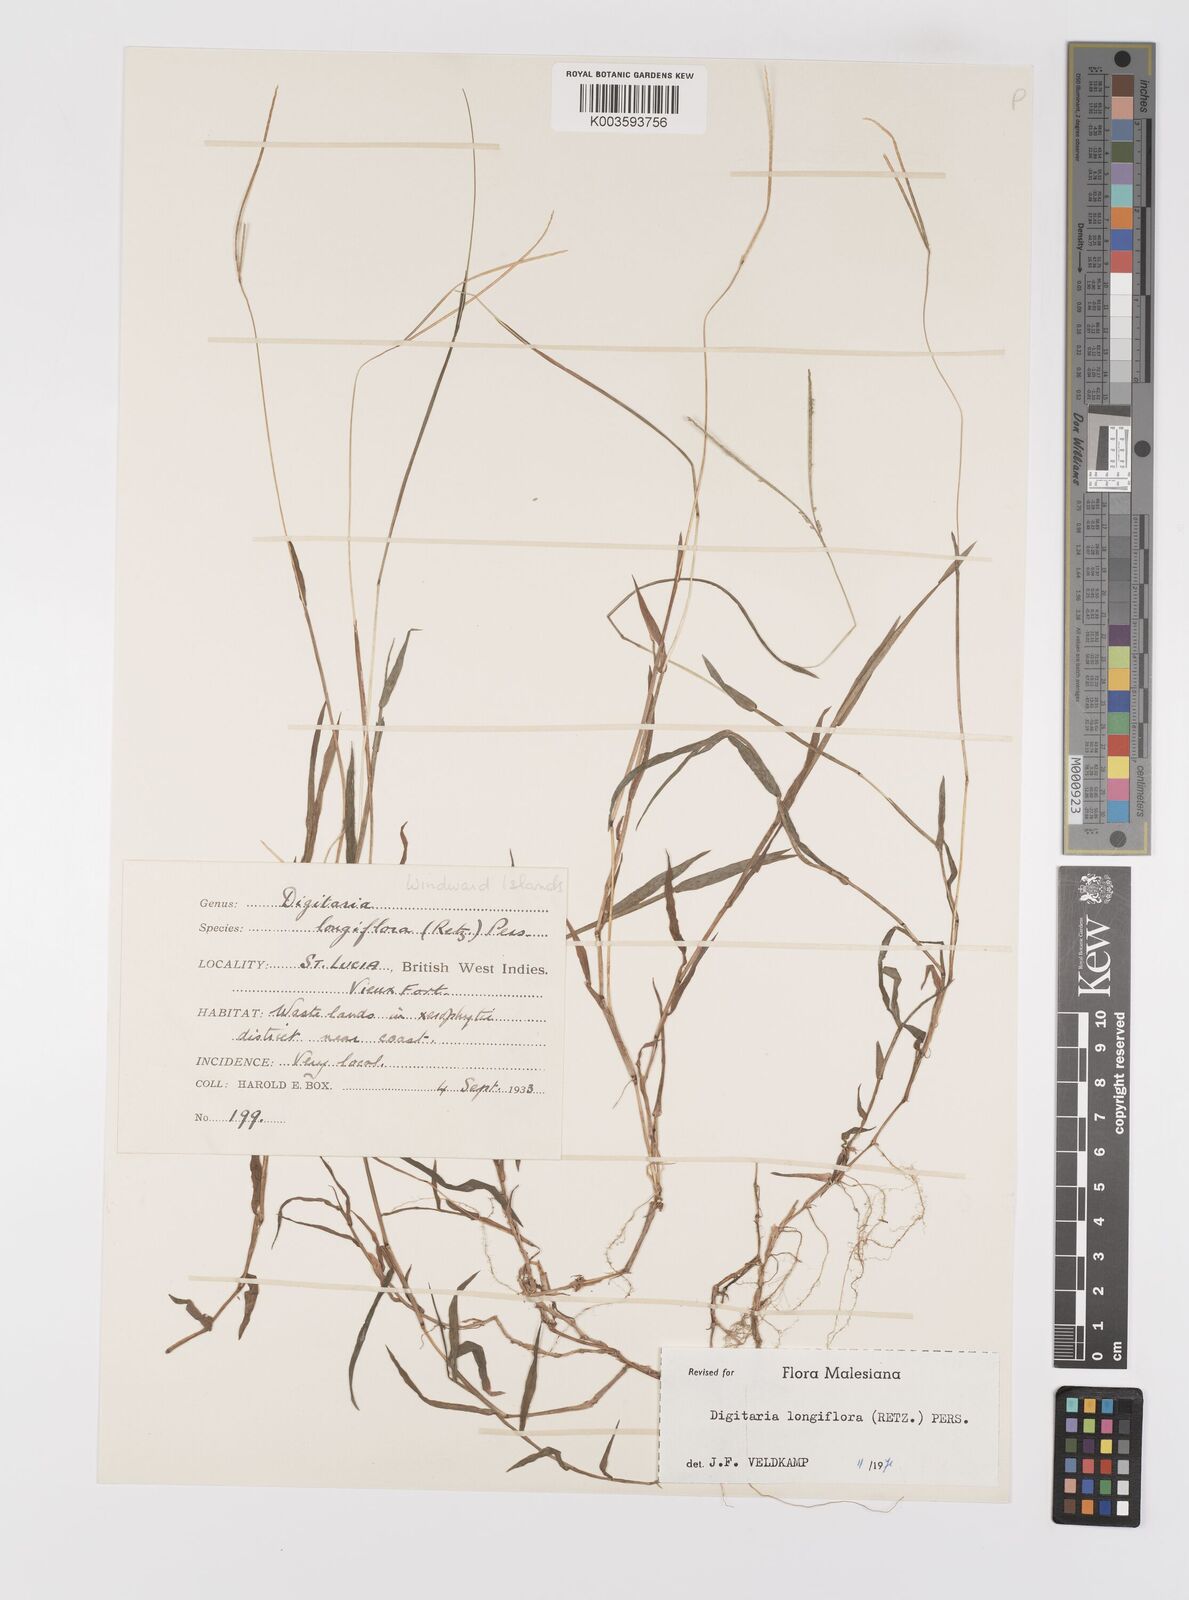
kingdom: Plantae
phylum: Tracheophyta
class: Liliopsida
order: Poales
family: Poaceae
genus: Digitaria
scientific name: Digitaria longiflora
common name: Wire crabgrass
